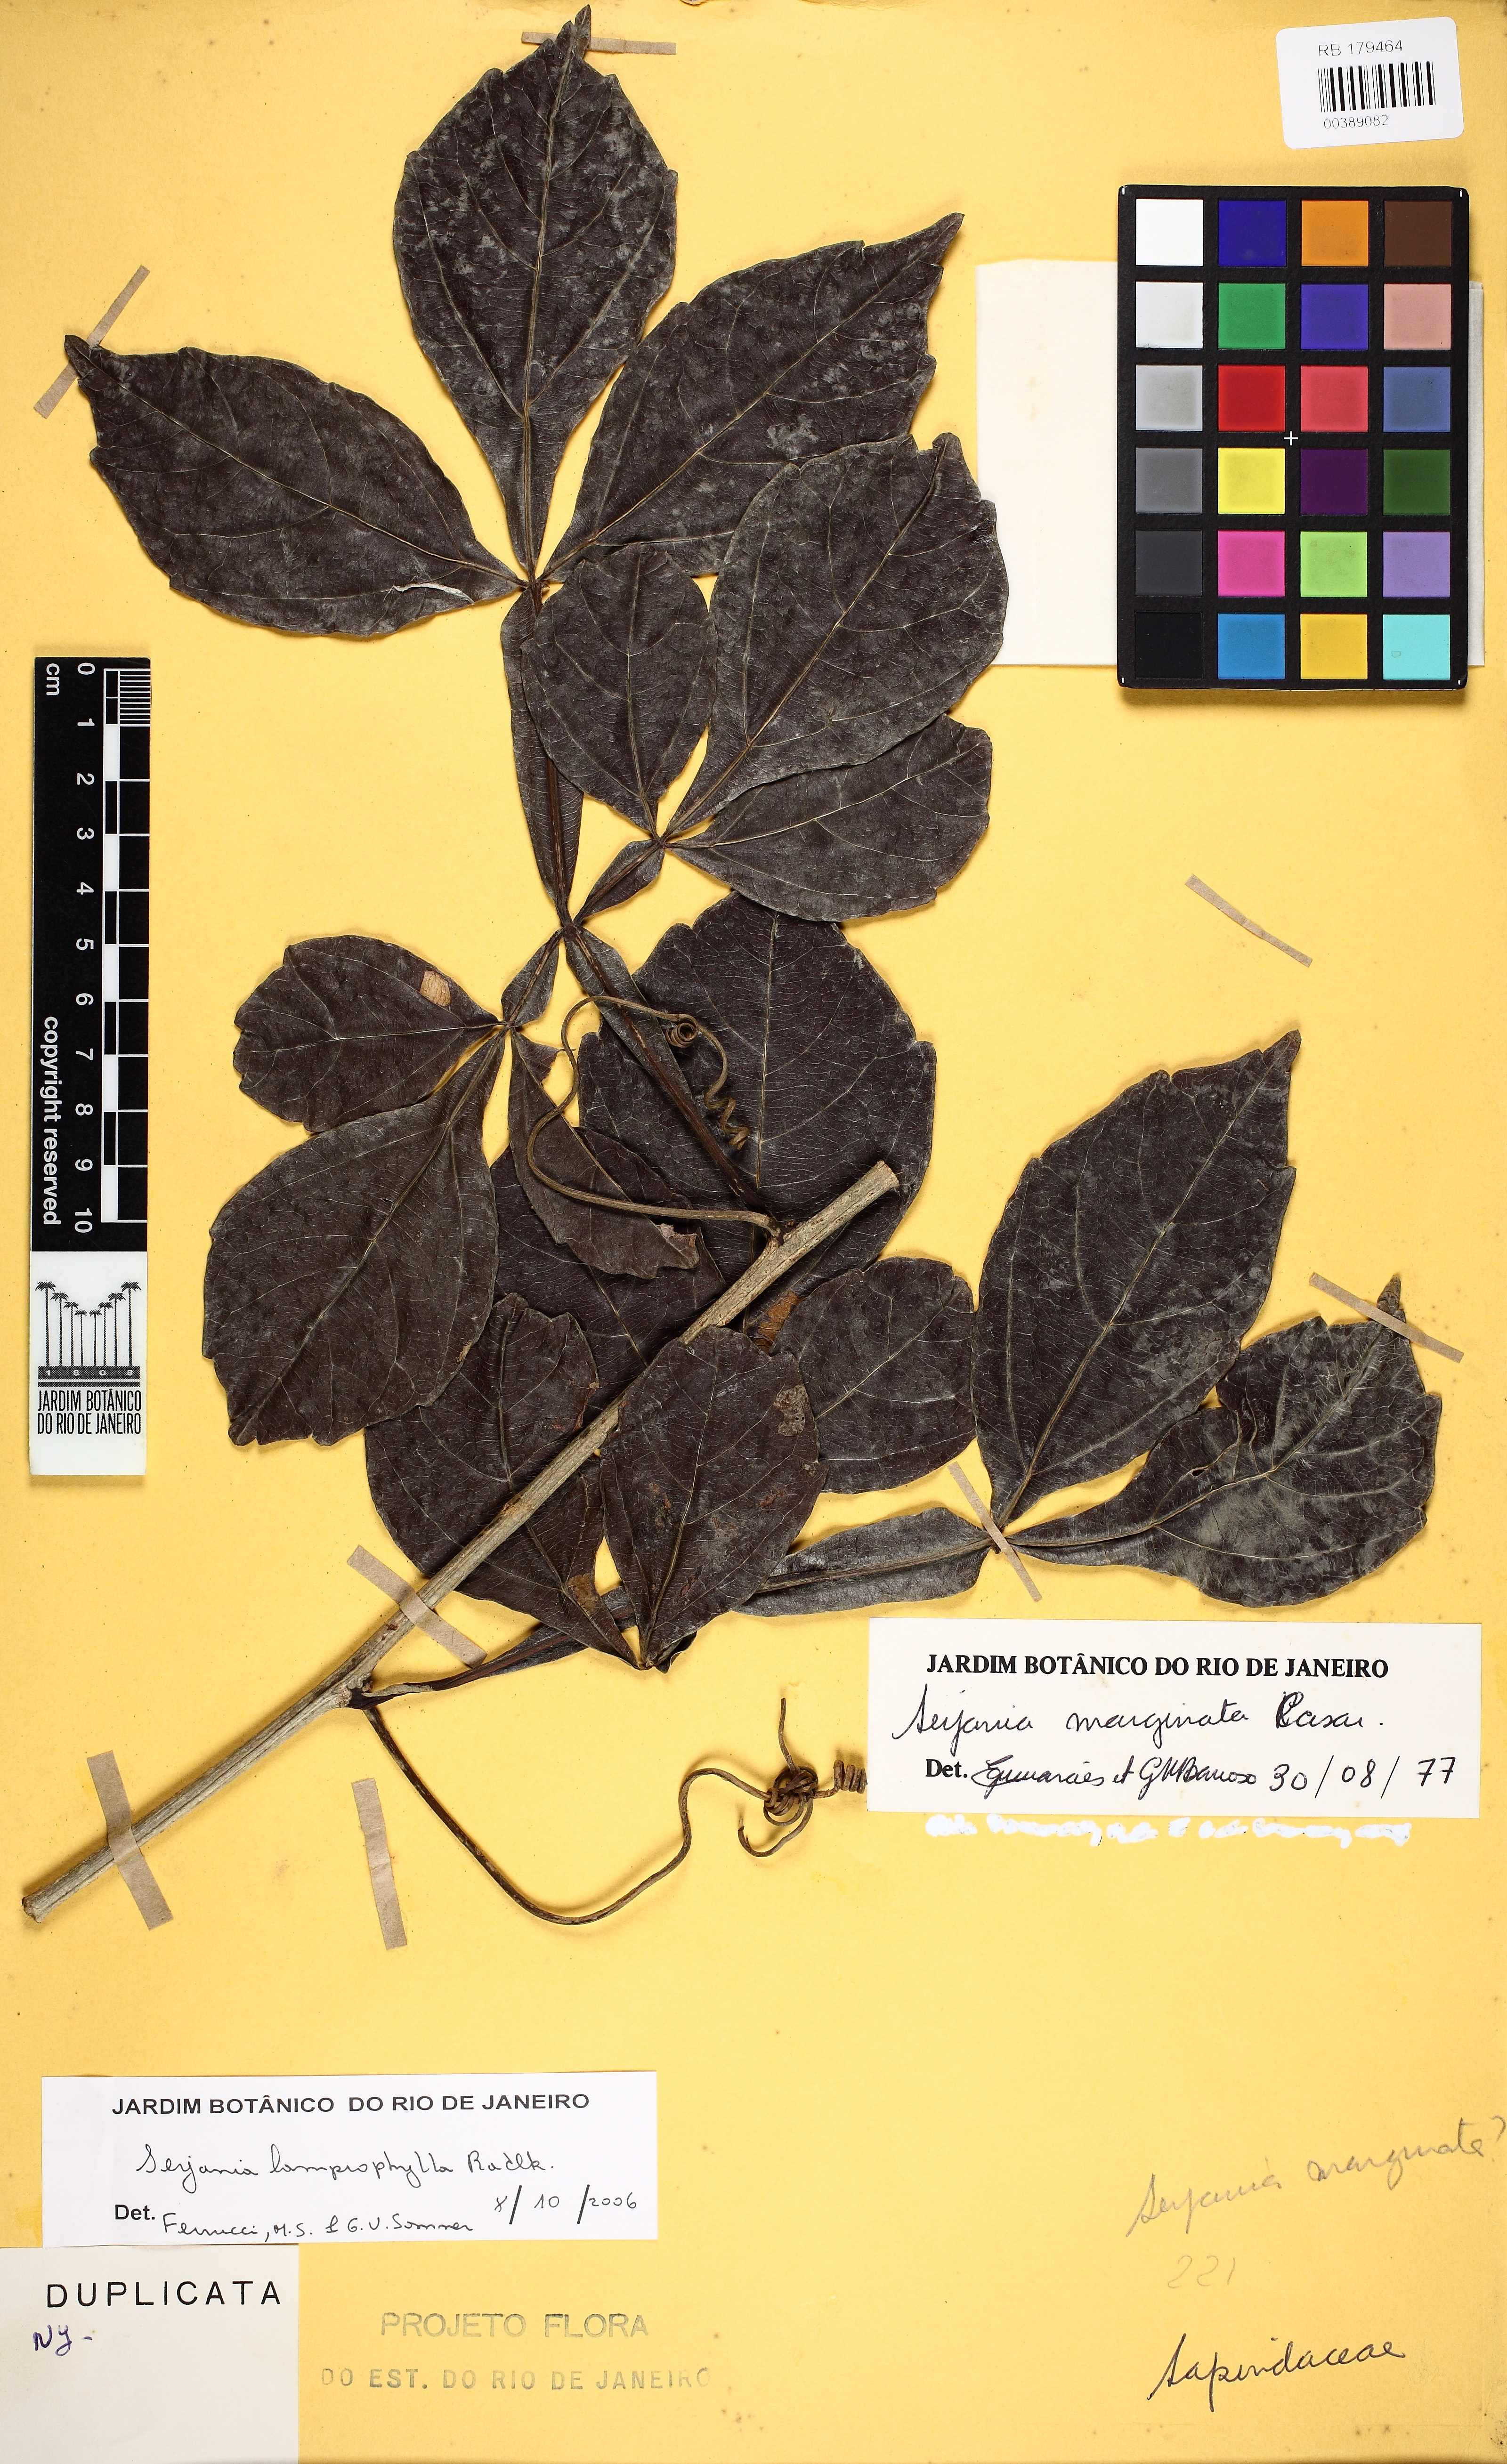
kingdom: Plantae
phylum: Tracheophyta
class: Magnoliopsida
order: Sapindales
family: Sapindaceae
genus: Serjania
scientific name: Serjania lamprophylla
